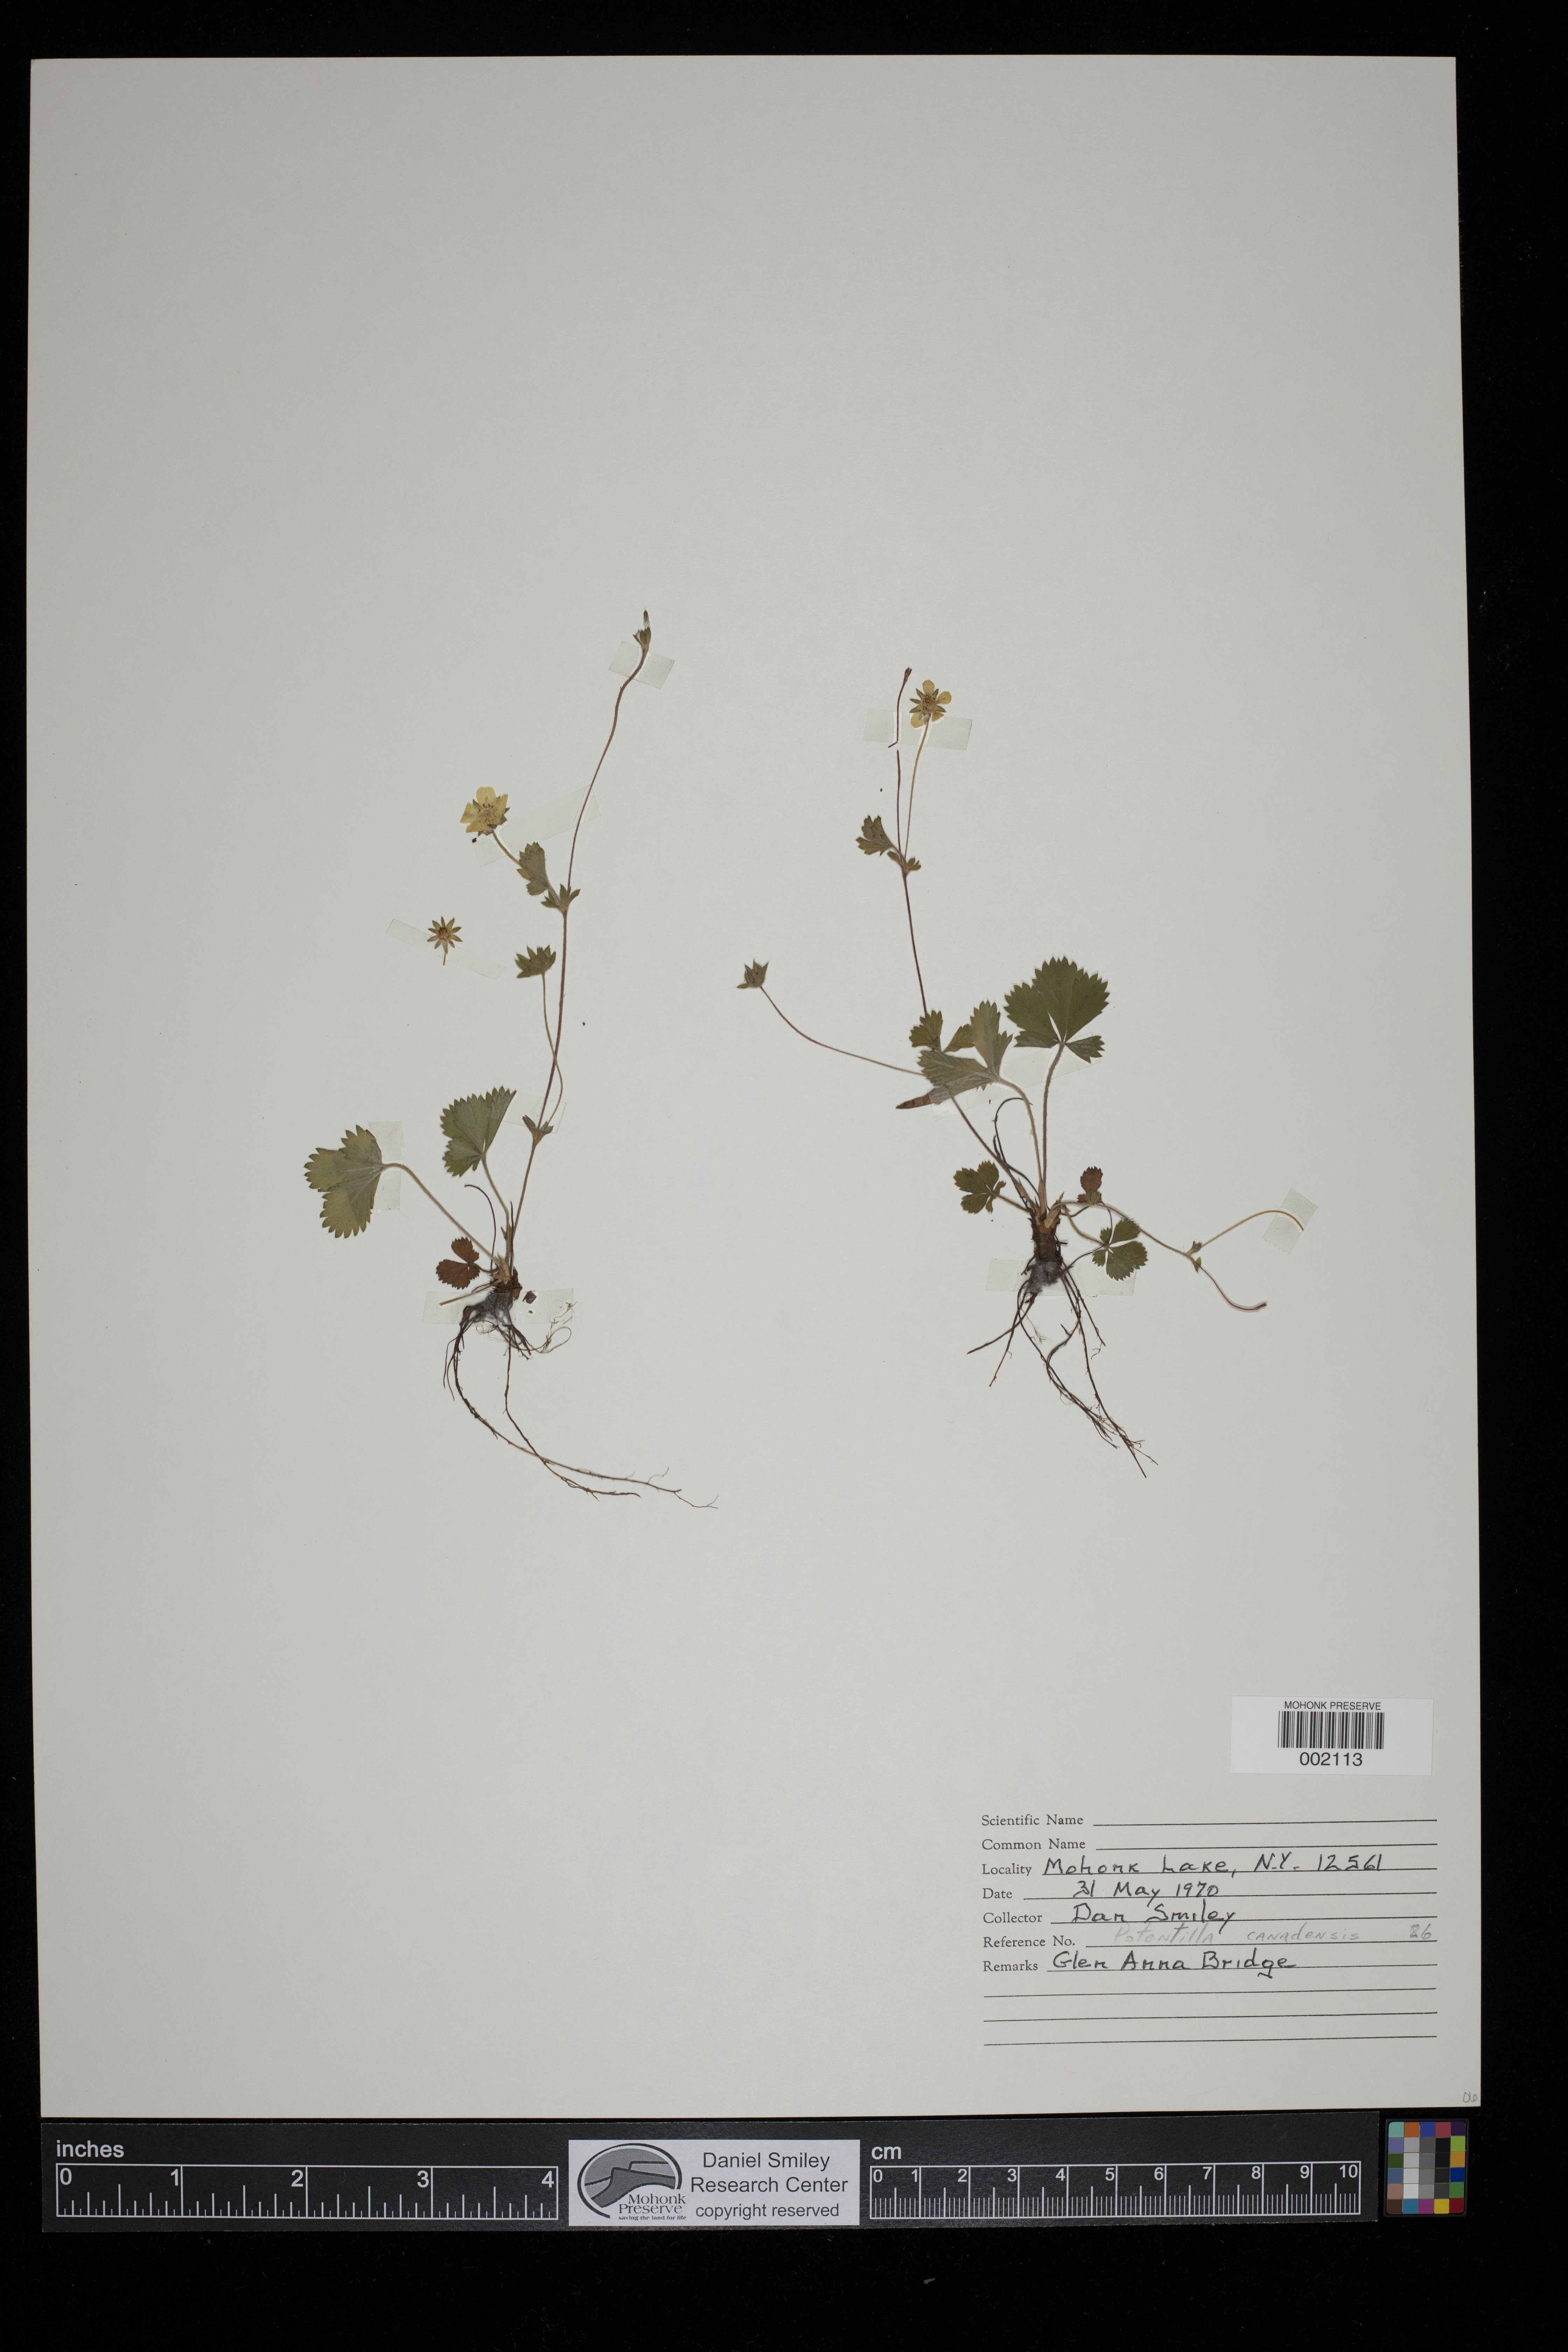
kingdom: Plantae
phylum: Tracheophyta
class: Magnoliopsida
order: Rosales
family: Rosaceae
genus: Potentilla
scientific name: Potentilla canadensis
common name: Canada cinquefoil
